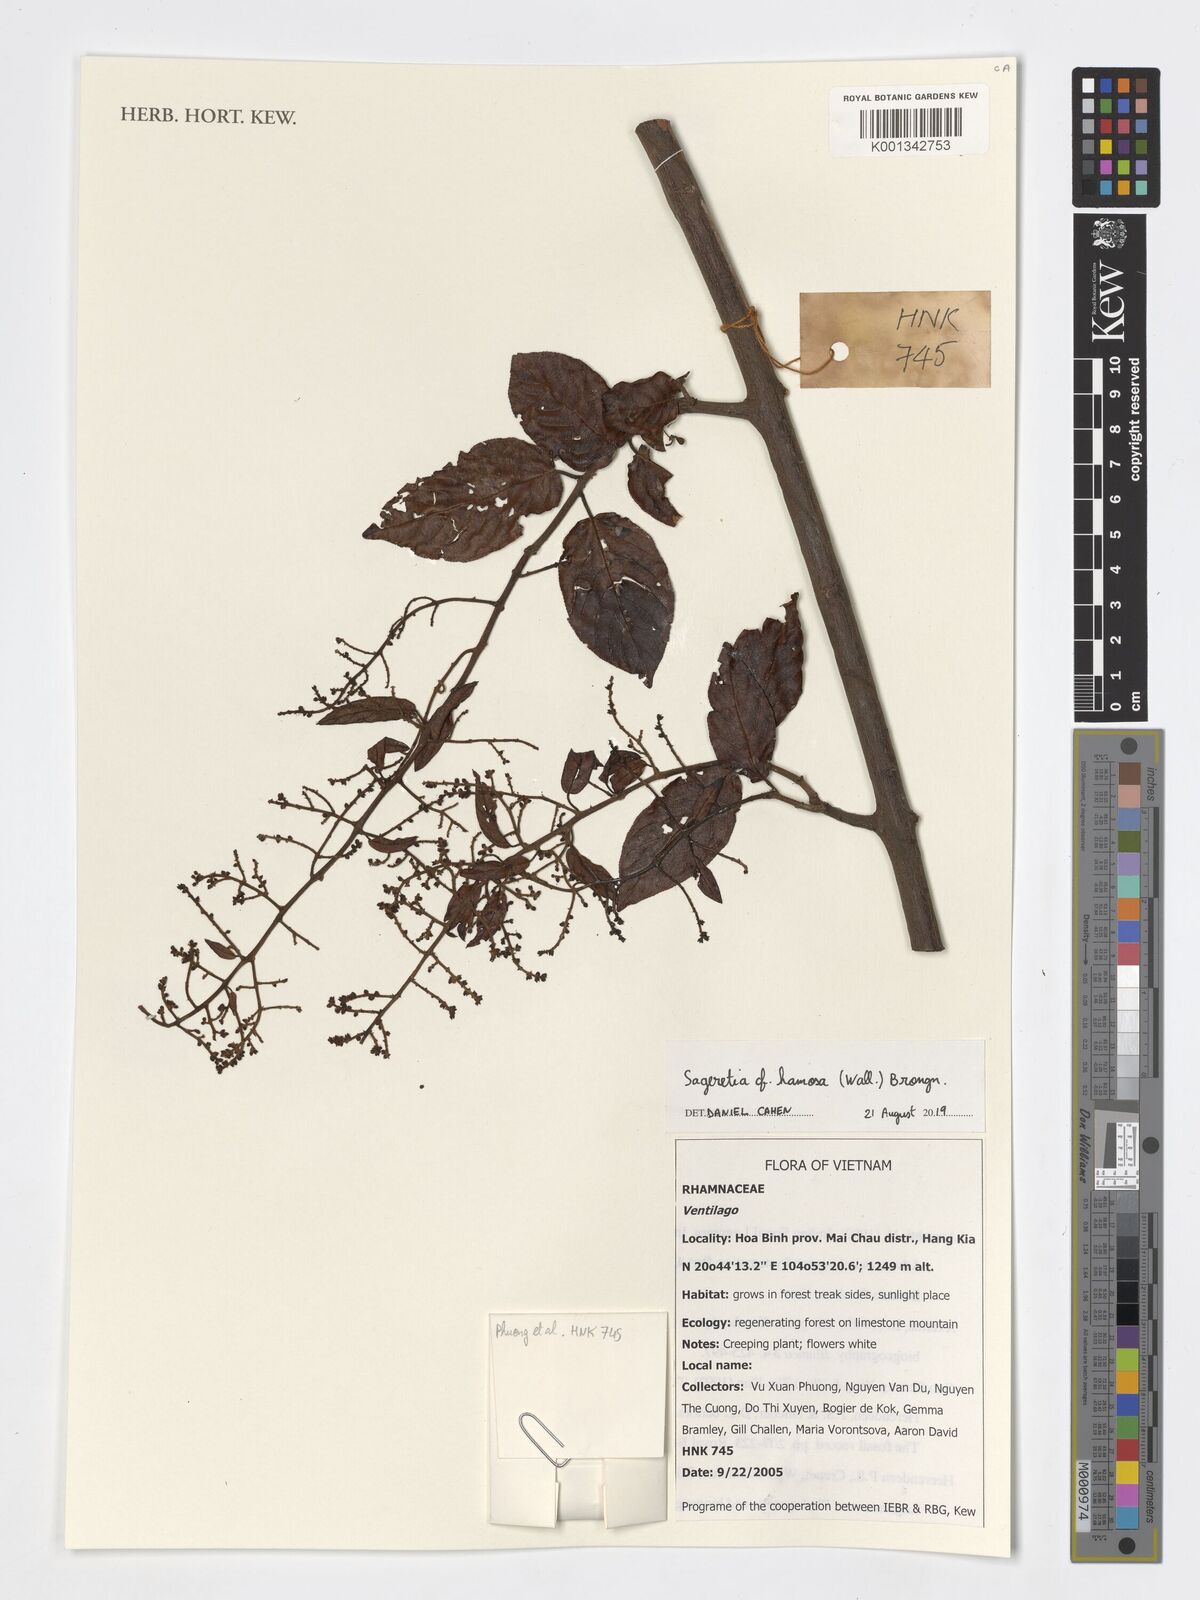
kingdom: Plantae
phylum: Tracheophyta
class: Magnoliopsida
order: Rosales
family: Rhamnaceae
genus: Sageretia
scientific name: Sageretia hamosa
